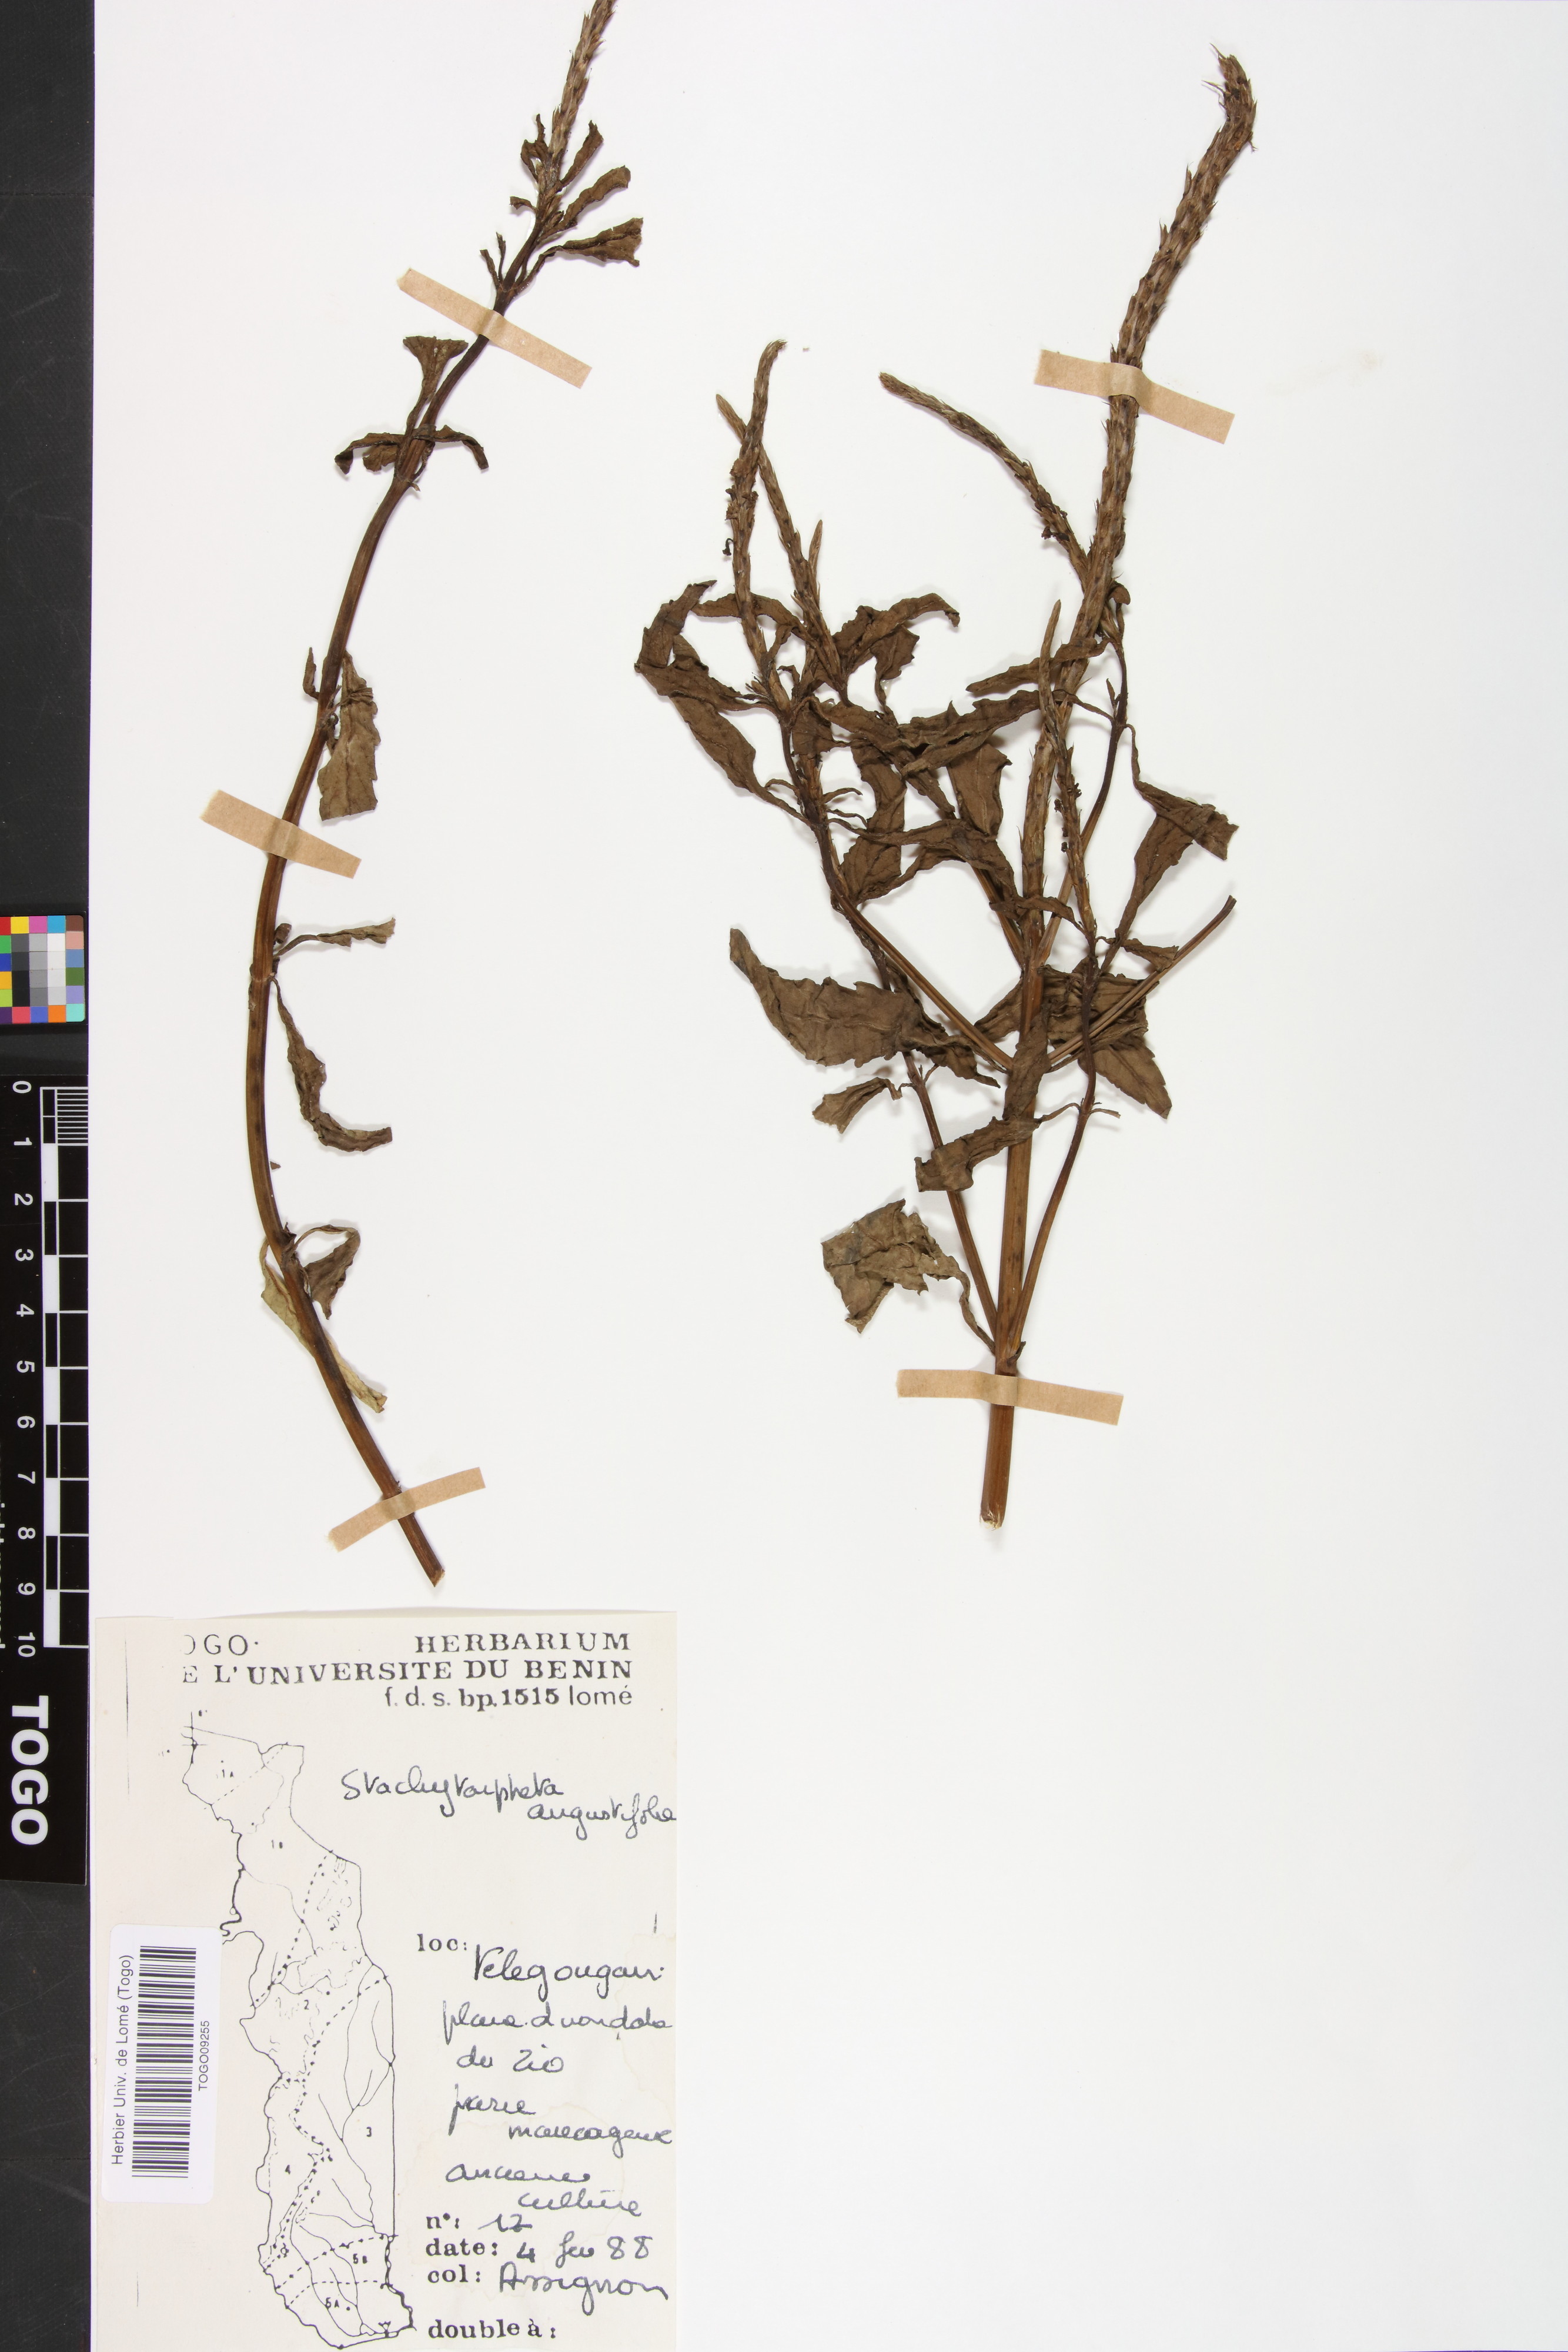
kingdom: Plantae
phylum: Tracheophyta
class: Magnoliopsida
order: Lamiales
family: Verbenaceae
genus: Stachytarpheta
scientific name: Stachytarpheta indica
